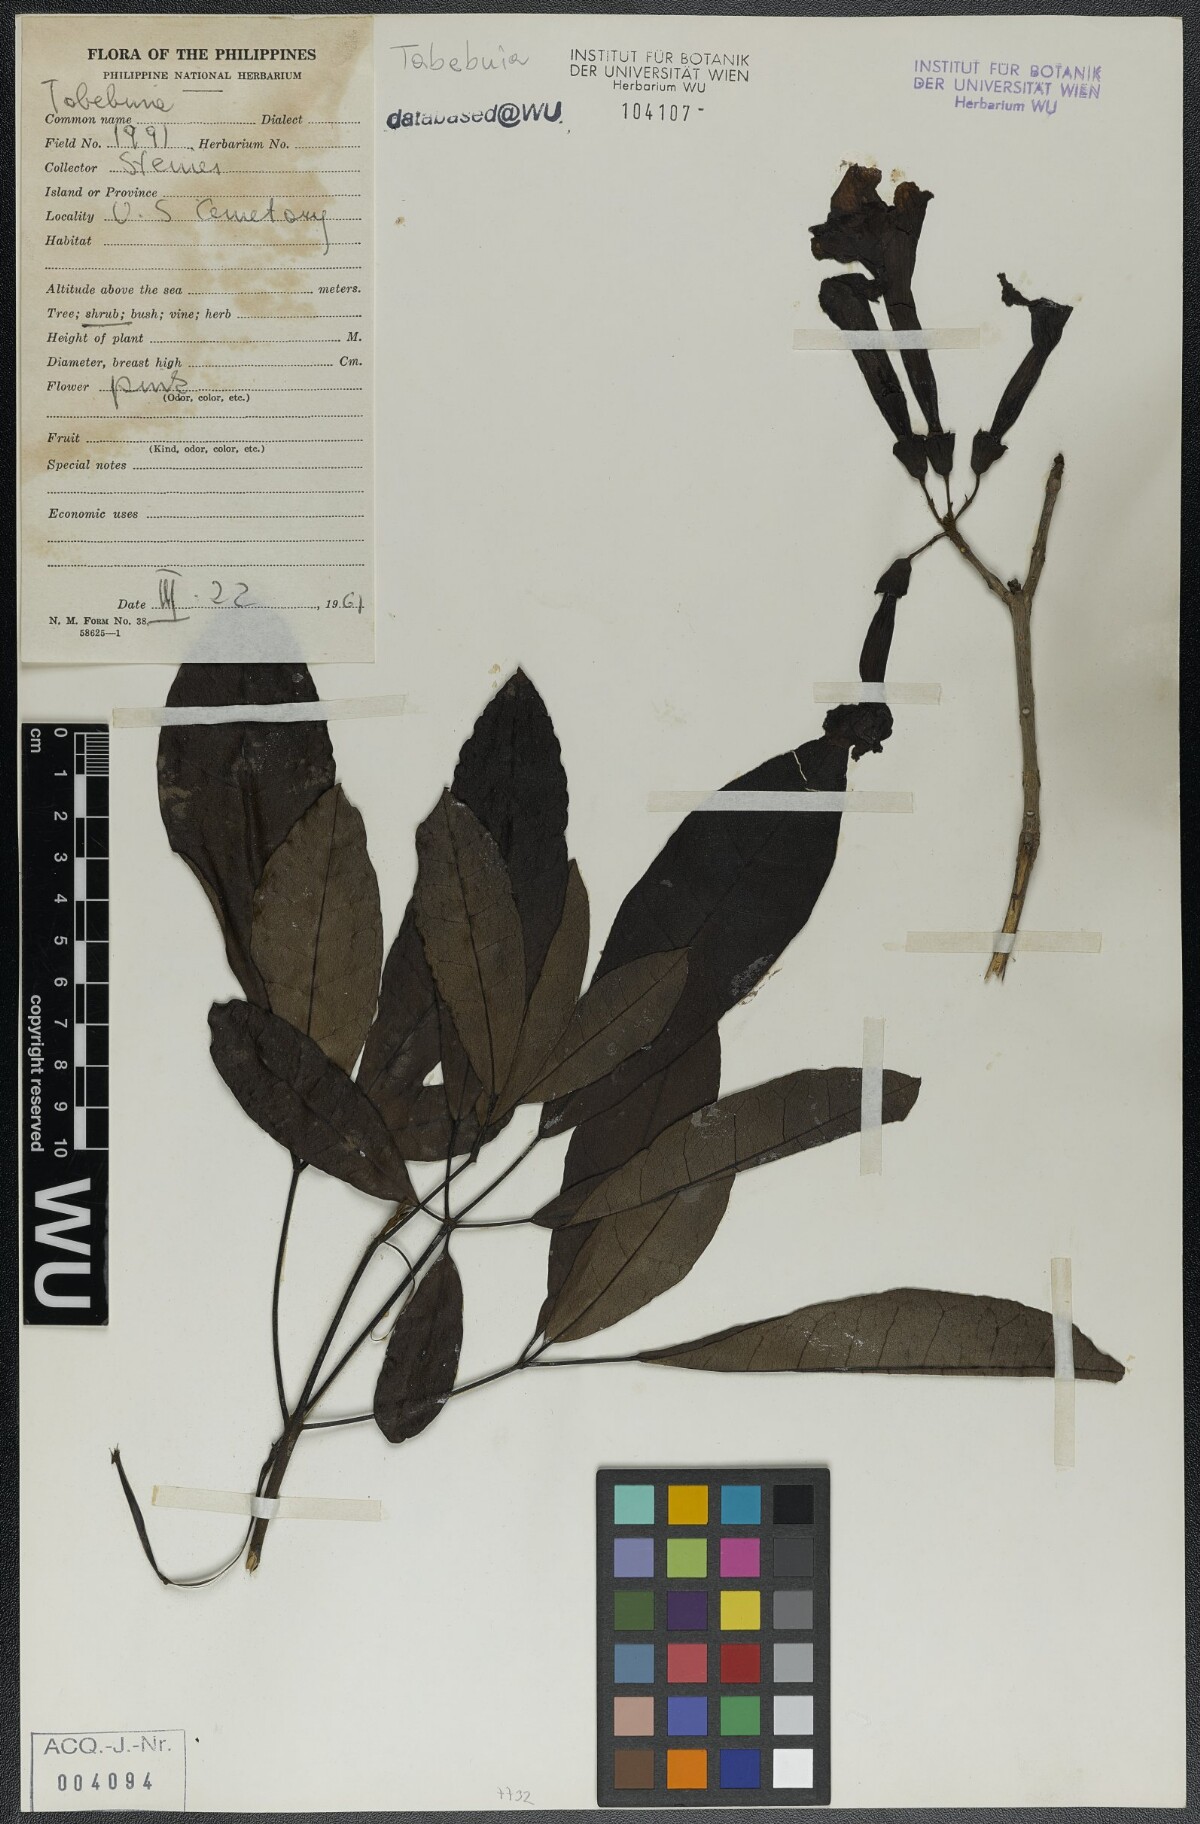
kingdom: Plantae
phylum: Tracheophyta
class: Magnoliopsida
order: Lamiales
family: Bignoniaceae
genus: Tabebuia
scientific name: Tabebuia
